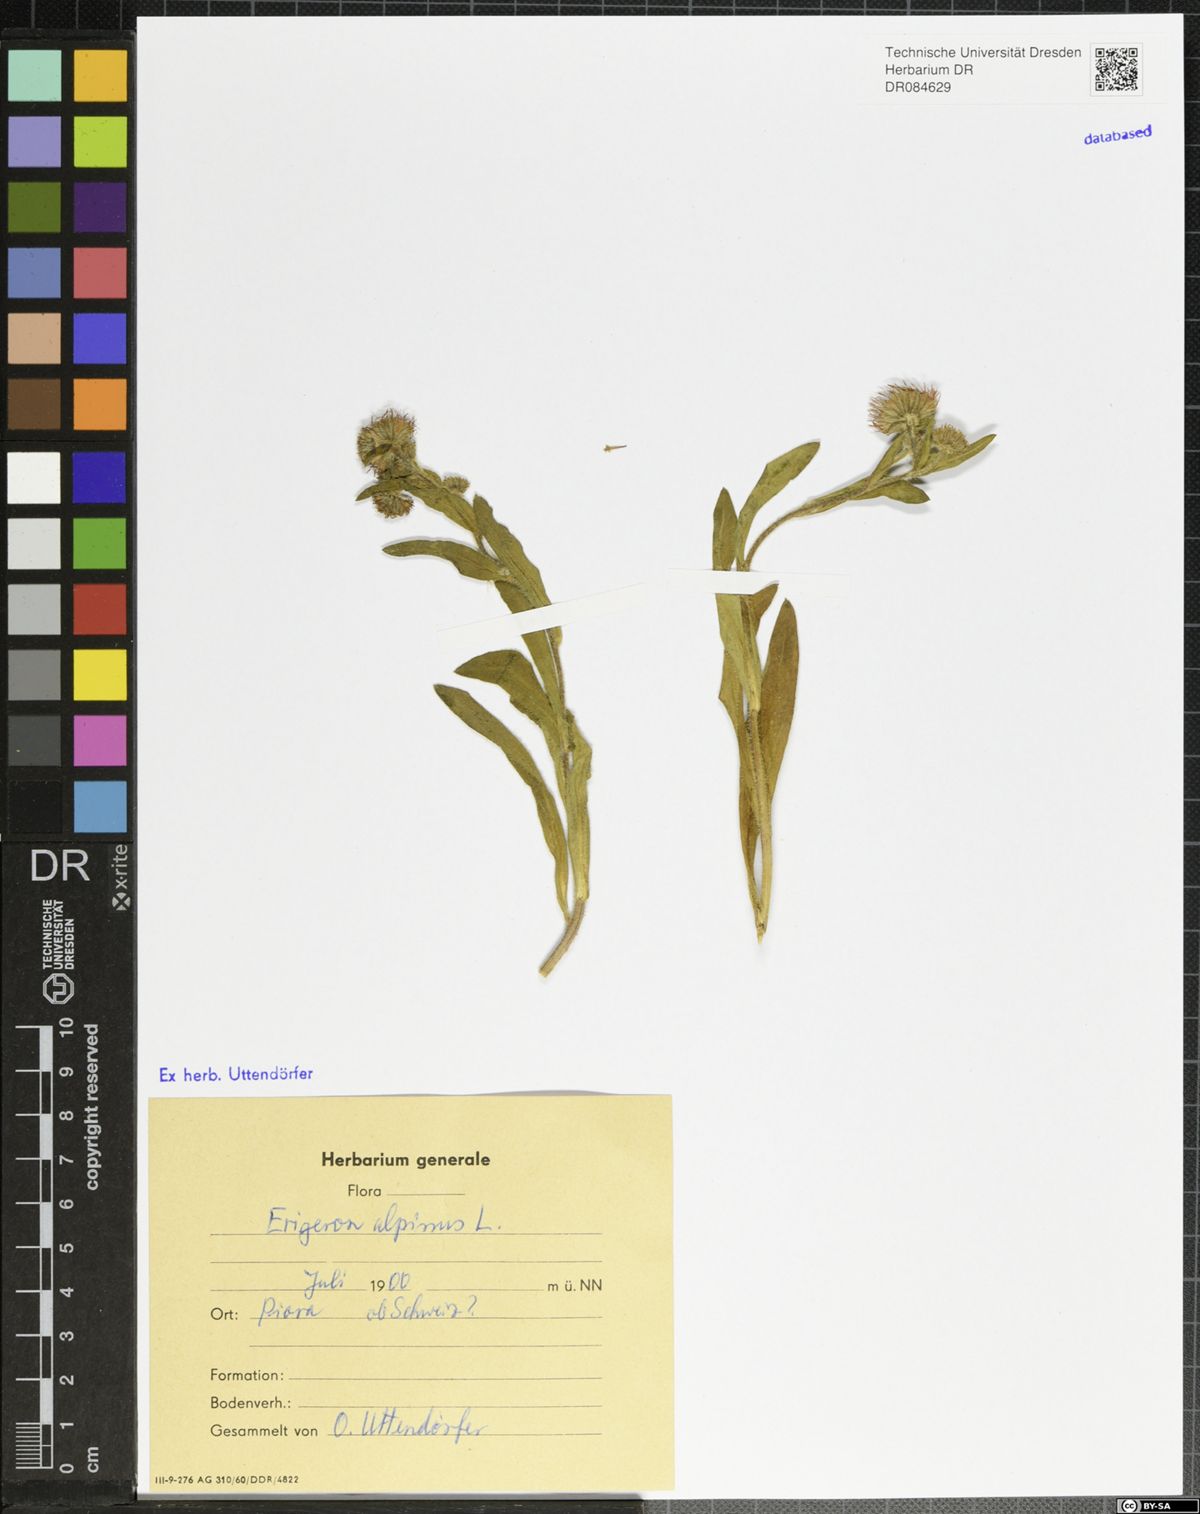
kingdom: Plantae
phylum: Tracheophyta
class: Magnoliopsida
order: Asterales
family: Asteraceae
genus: Erigeron
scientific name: Erigeron alpinus
